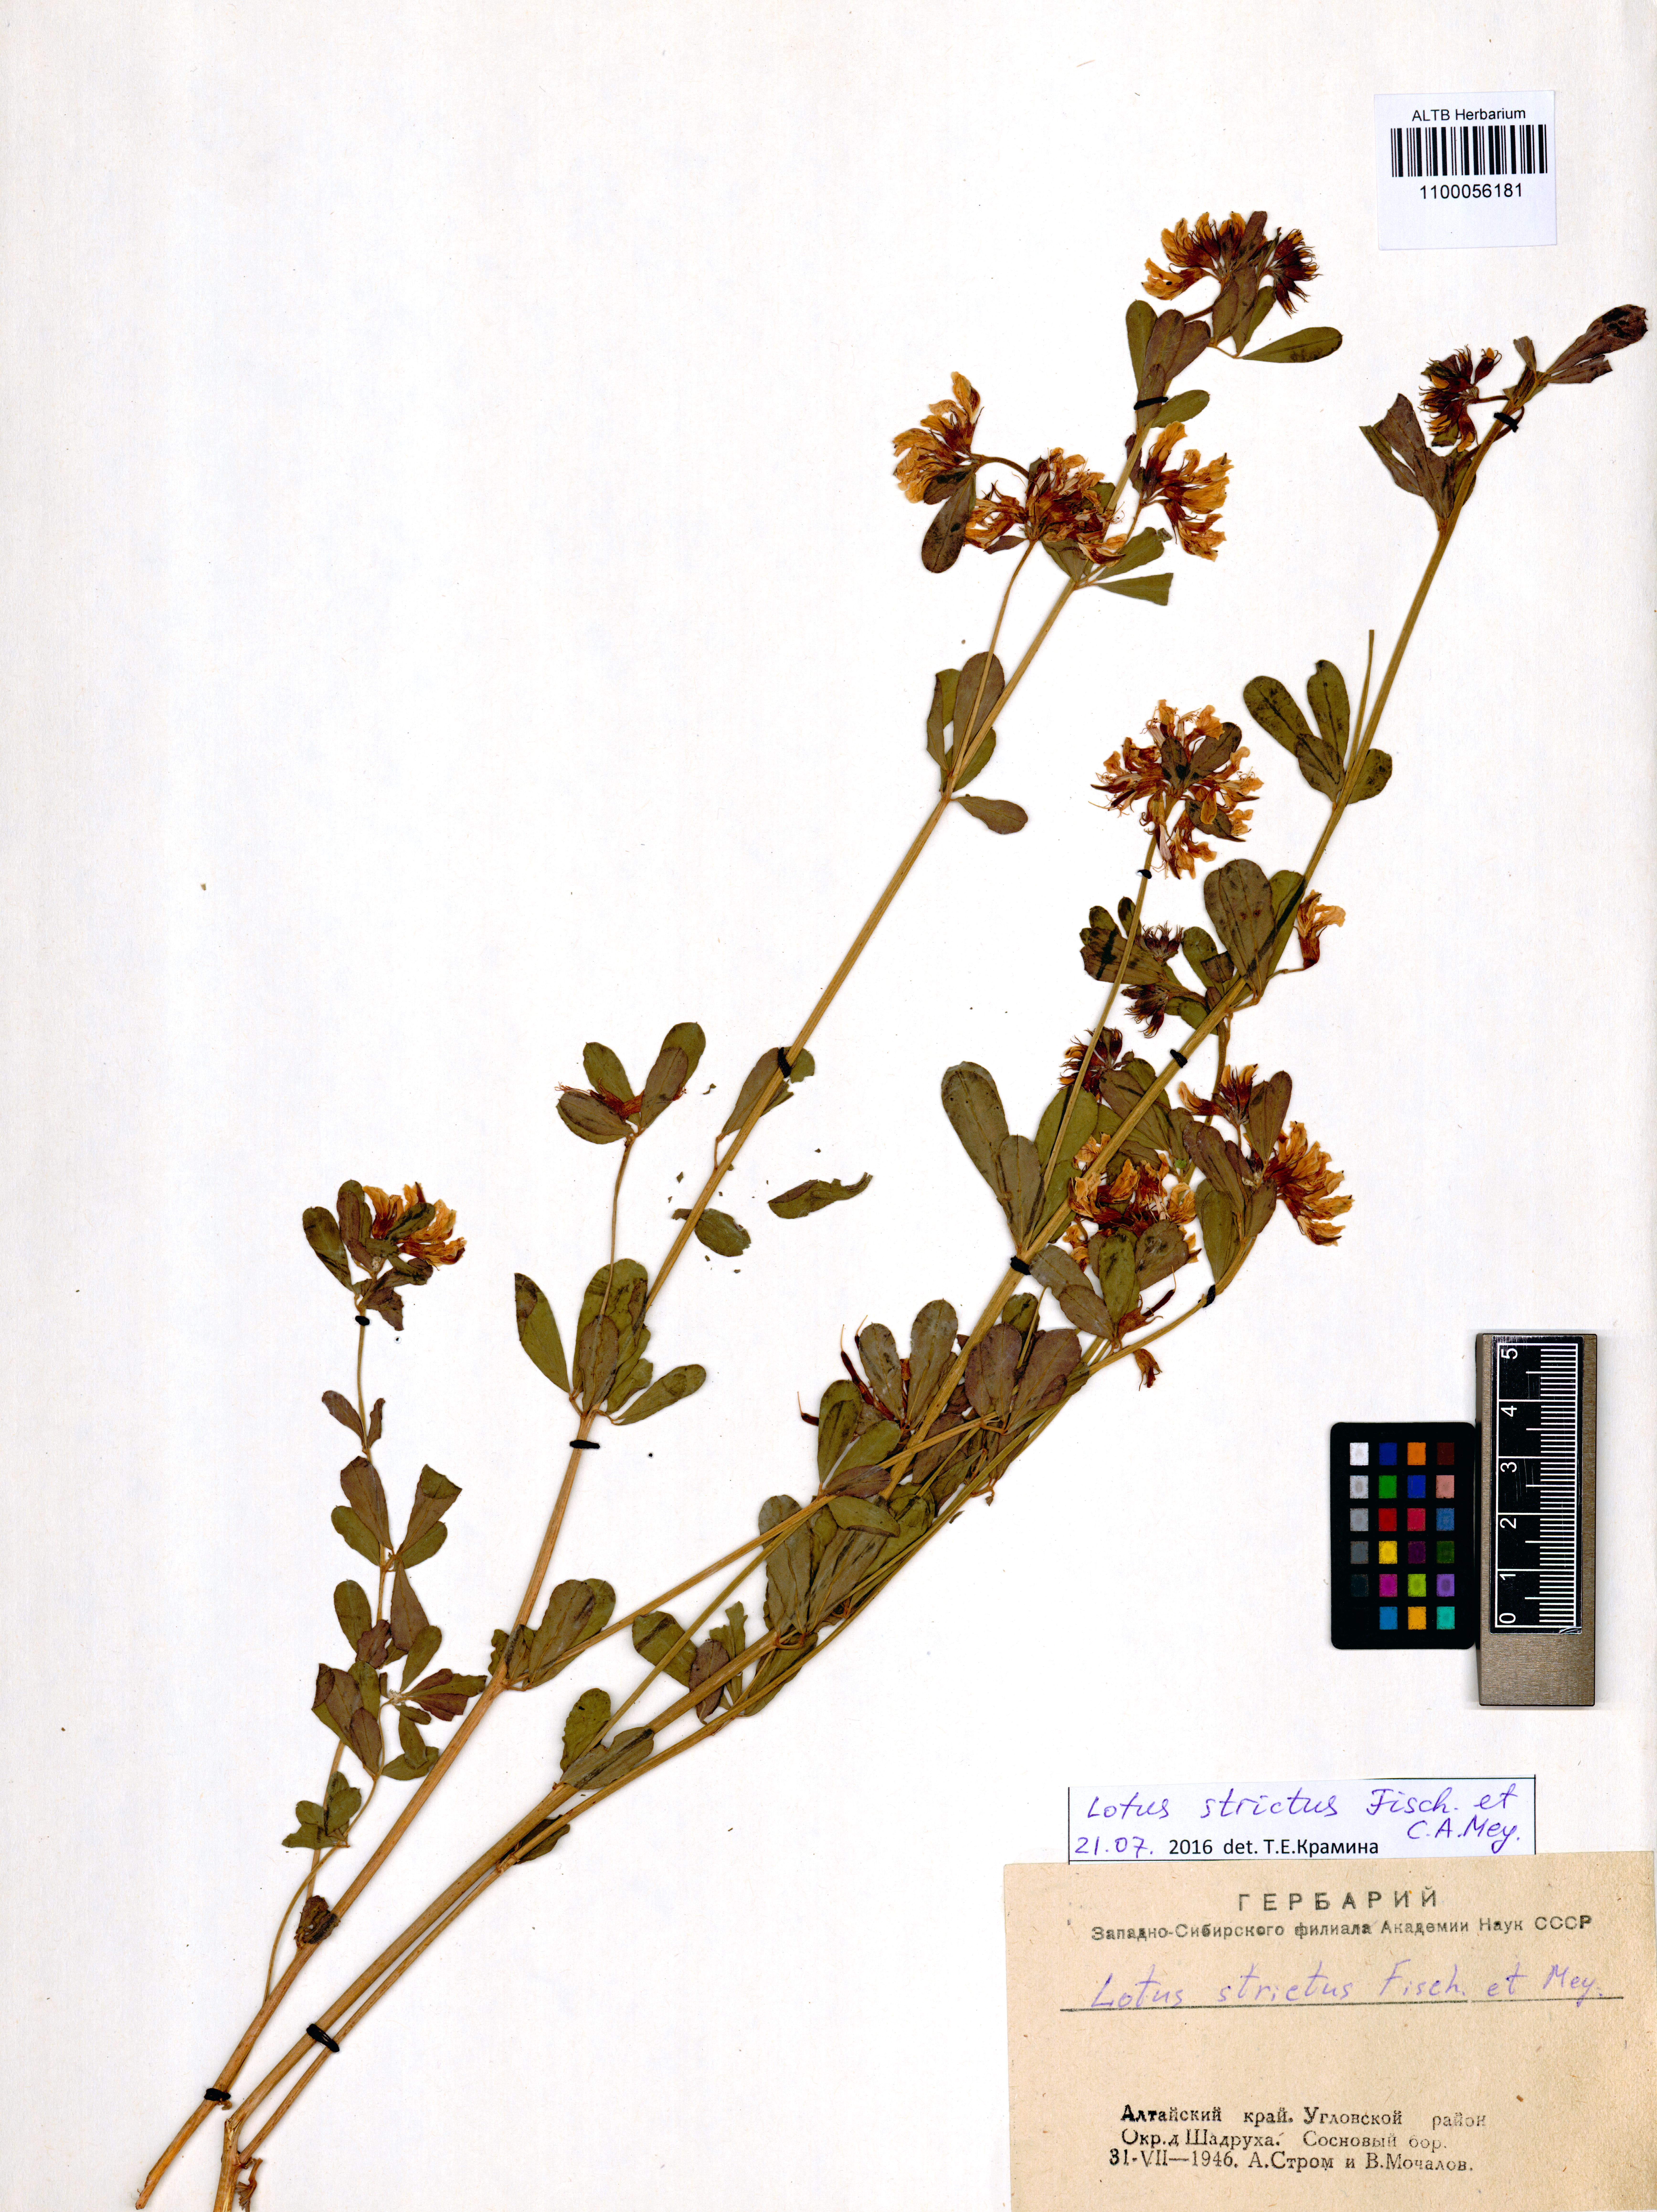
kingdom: Plantae
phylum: Tracheophyta
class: Magnoliopsida
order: Fabales
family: Fabaceae
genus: Lotus
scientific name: Lotus strictus
